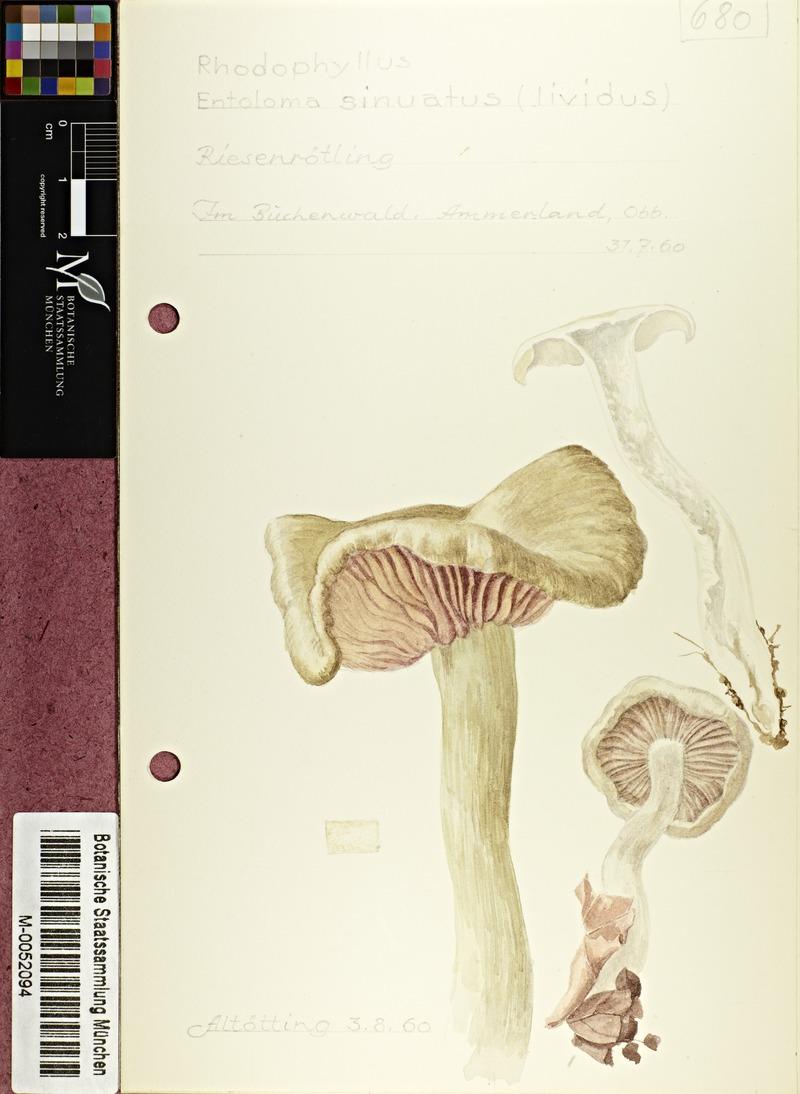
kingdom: Fungi
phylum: Basidiomycota
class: Agaricomycetes
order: Agaricales
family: Entolomataceae
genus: Entoloma
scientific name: Entoloma sinuatum
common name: Livid pinkgill
